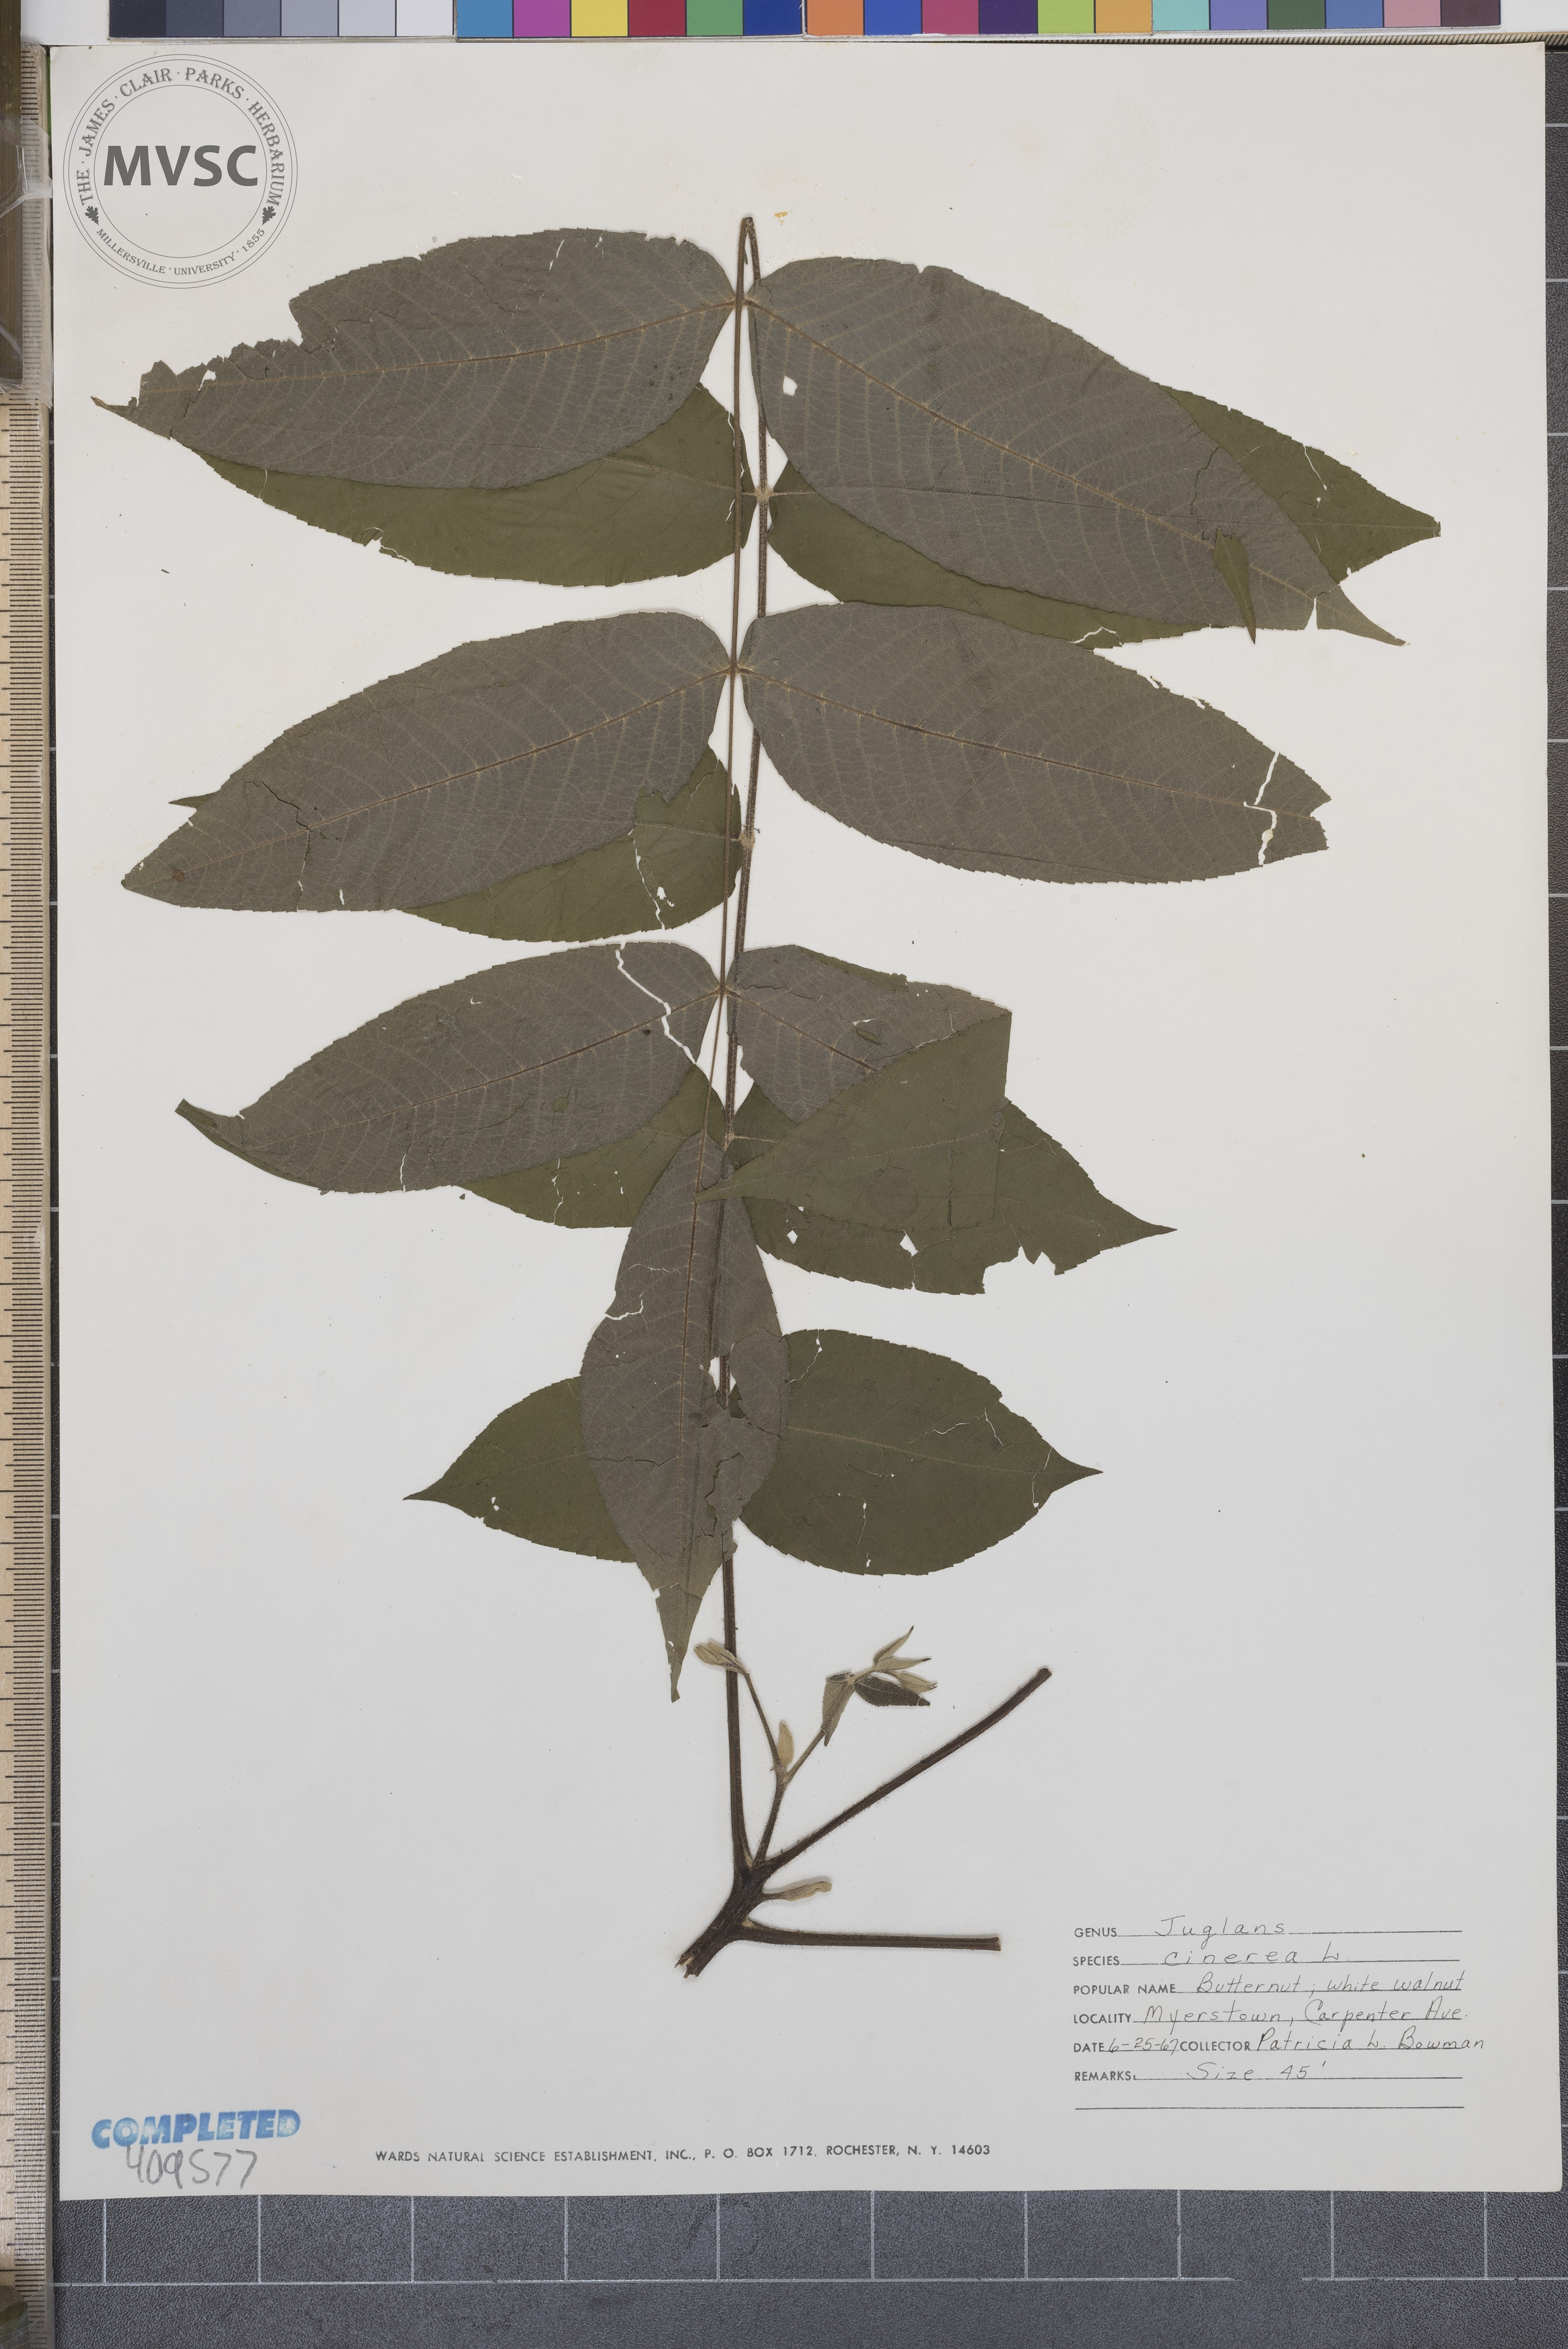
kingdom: Plantae
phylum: Tracheophyta
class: Magnoliopsida
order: Fagales
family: Juglandaceae
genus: Juglans
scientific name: Juglans cinerea
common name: Butternut
